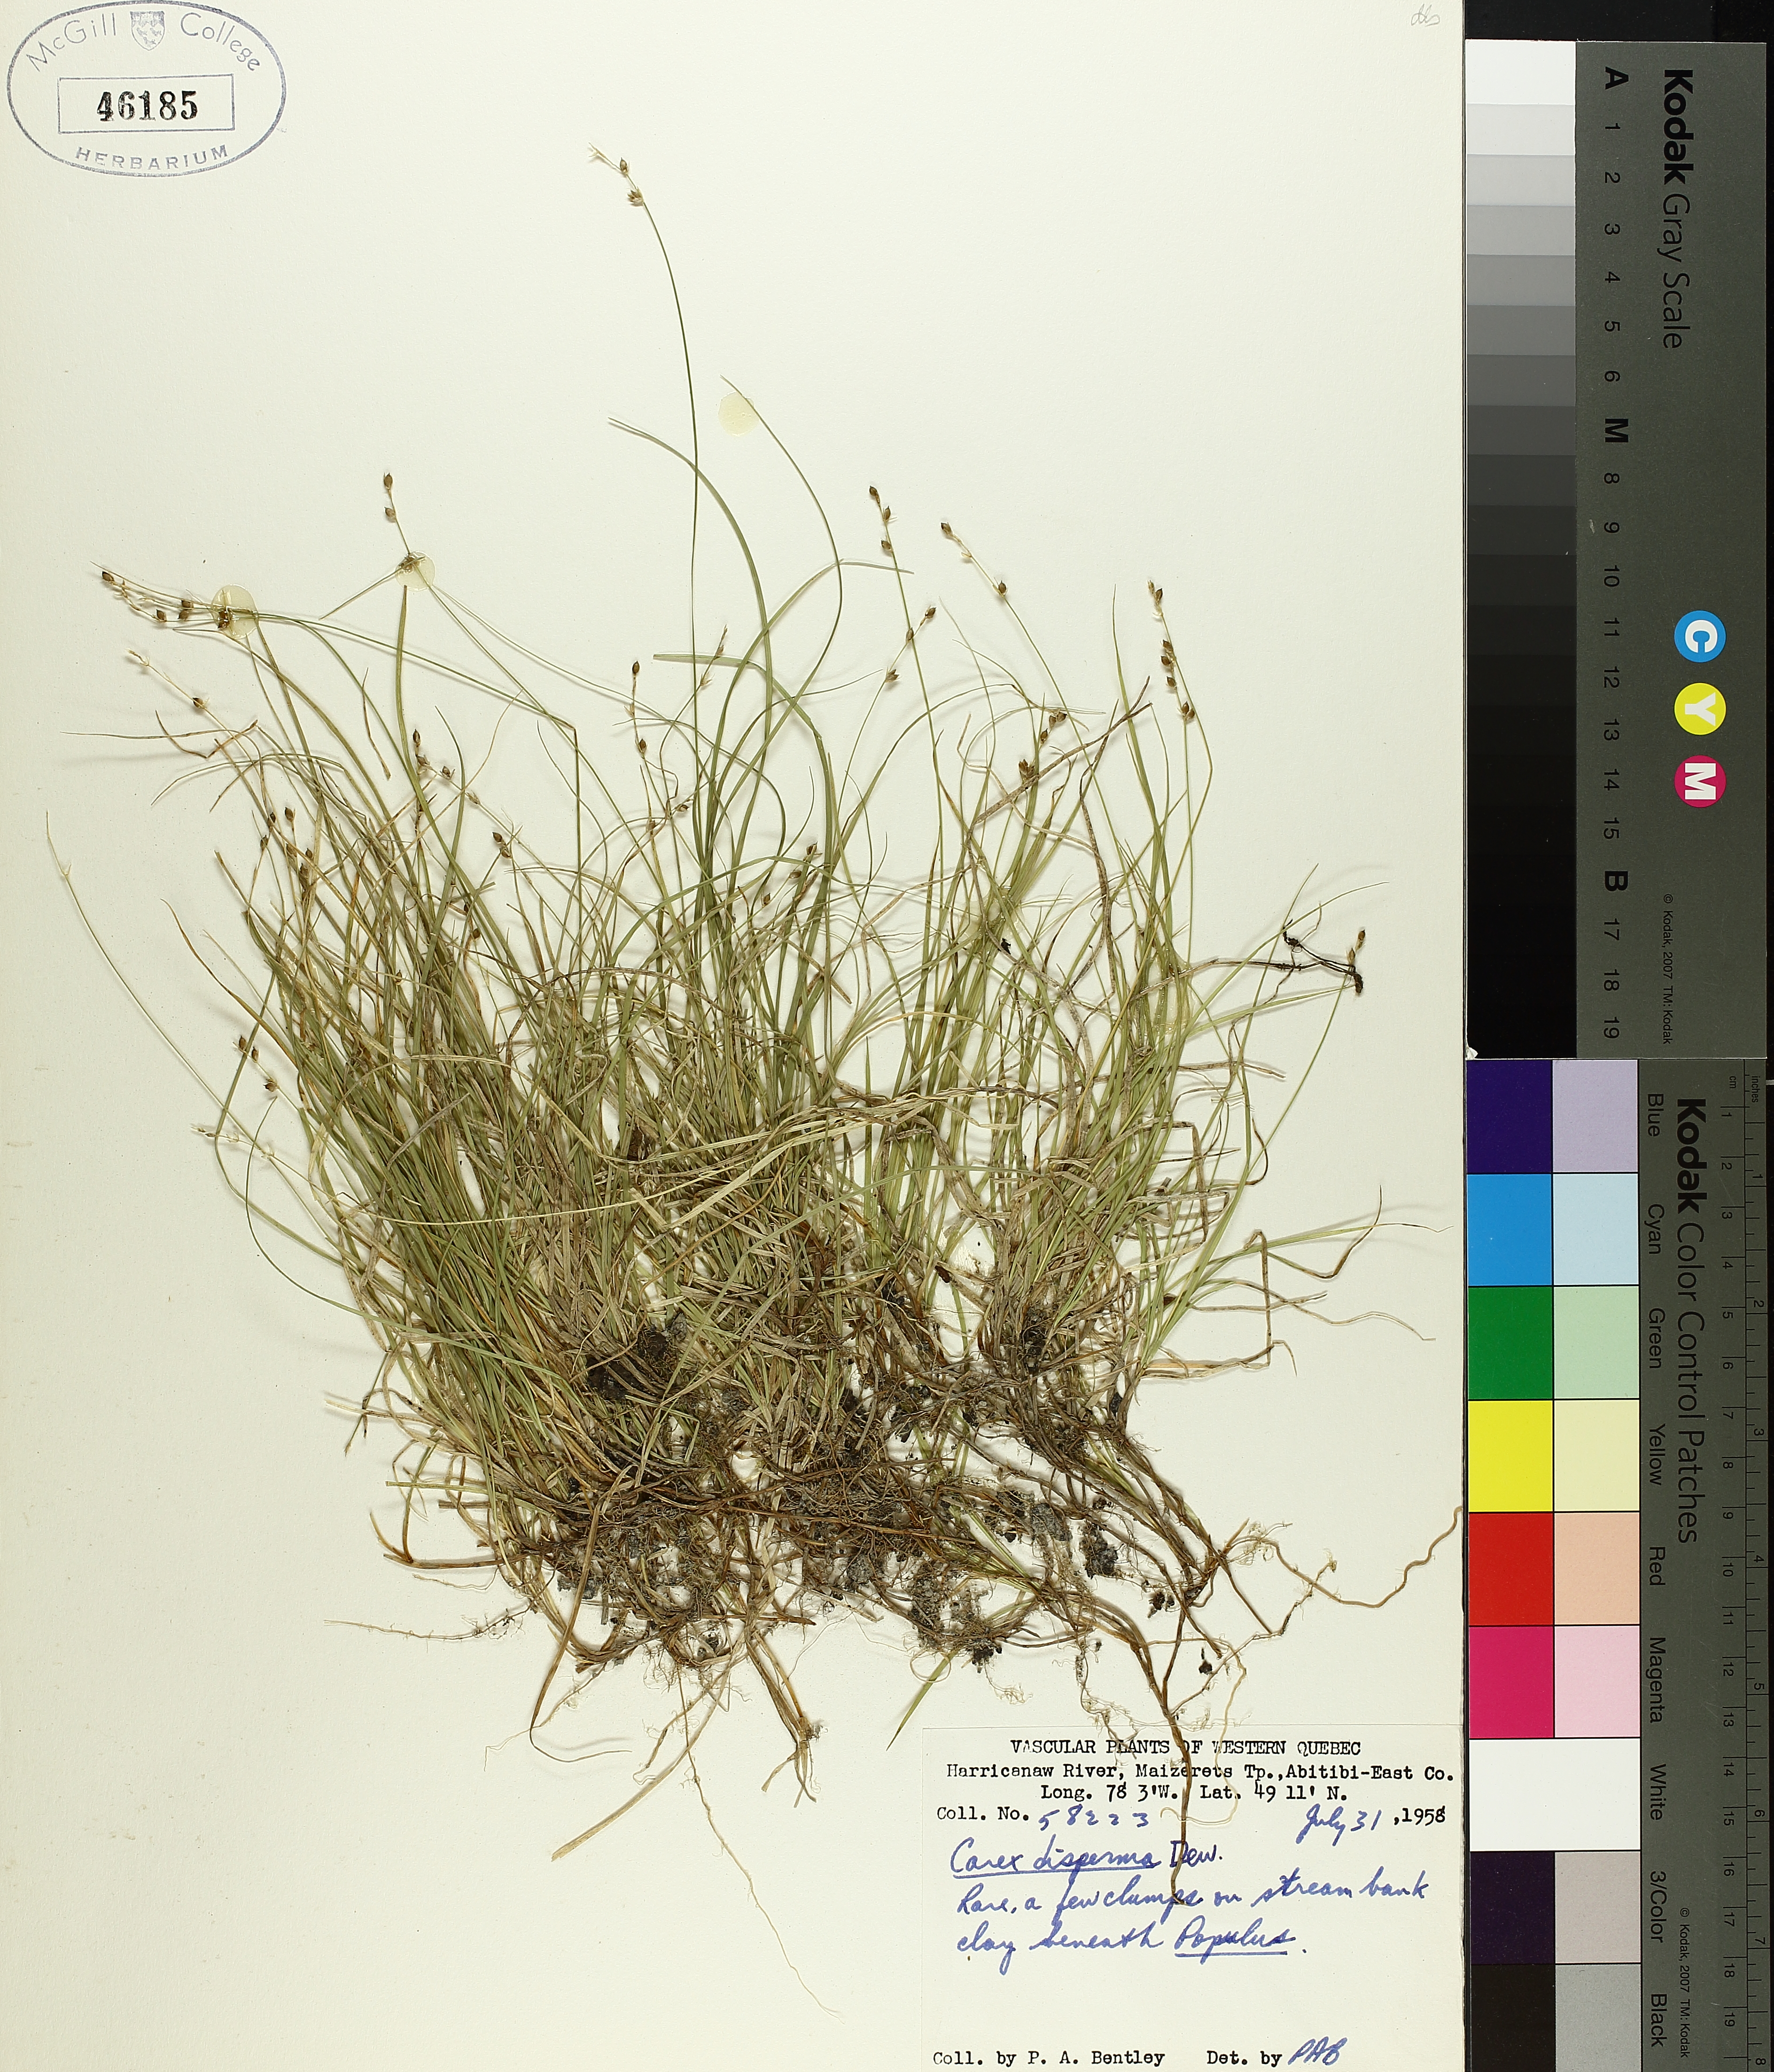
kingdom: Plantae
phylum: Tracheophyta
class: Liliopsida
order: Poales
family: Cyperaceae
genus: Carex
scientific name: Carex disperma
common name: Short-leaved sedge
